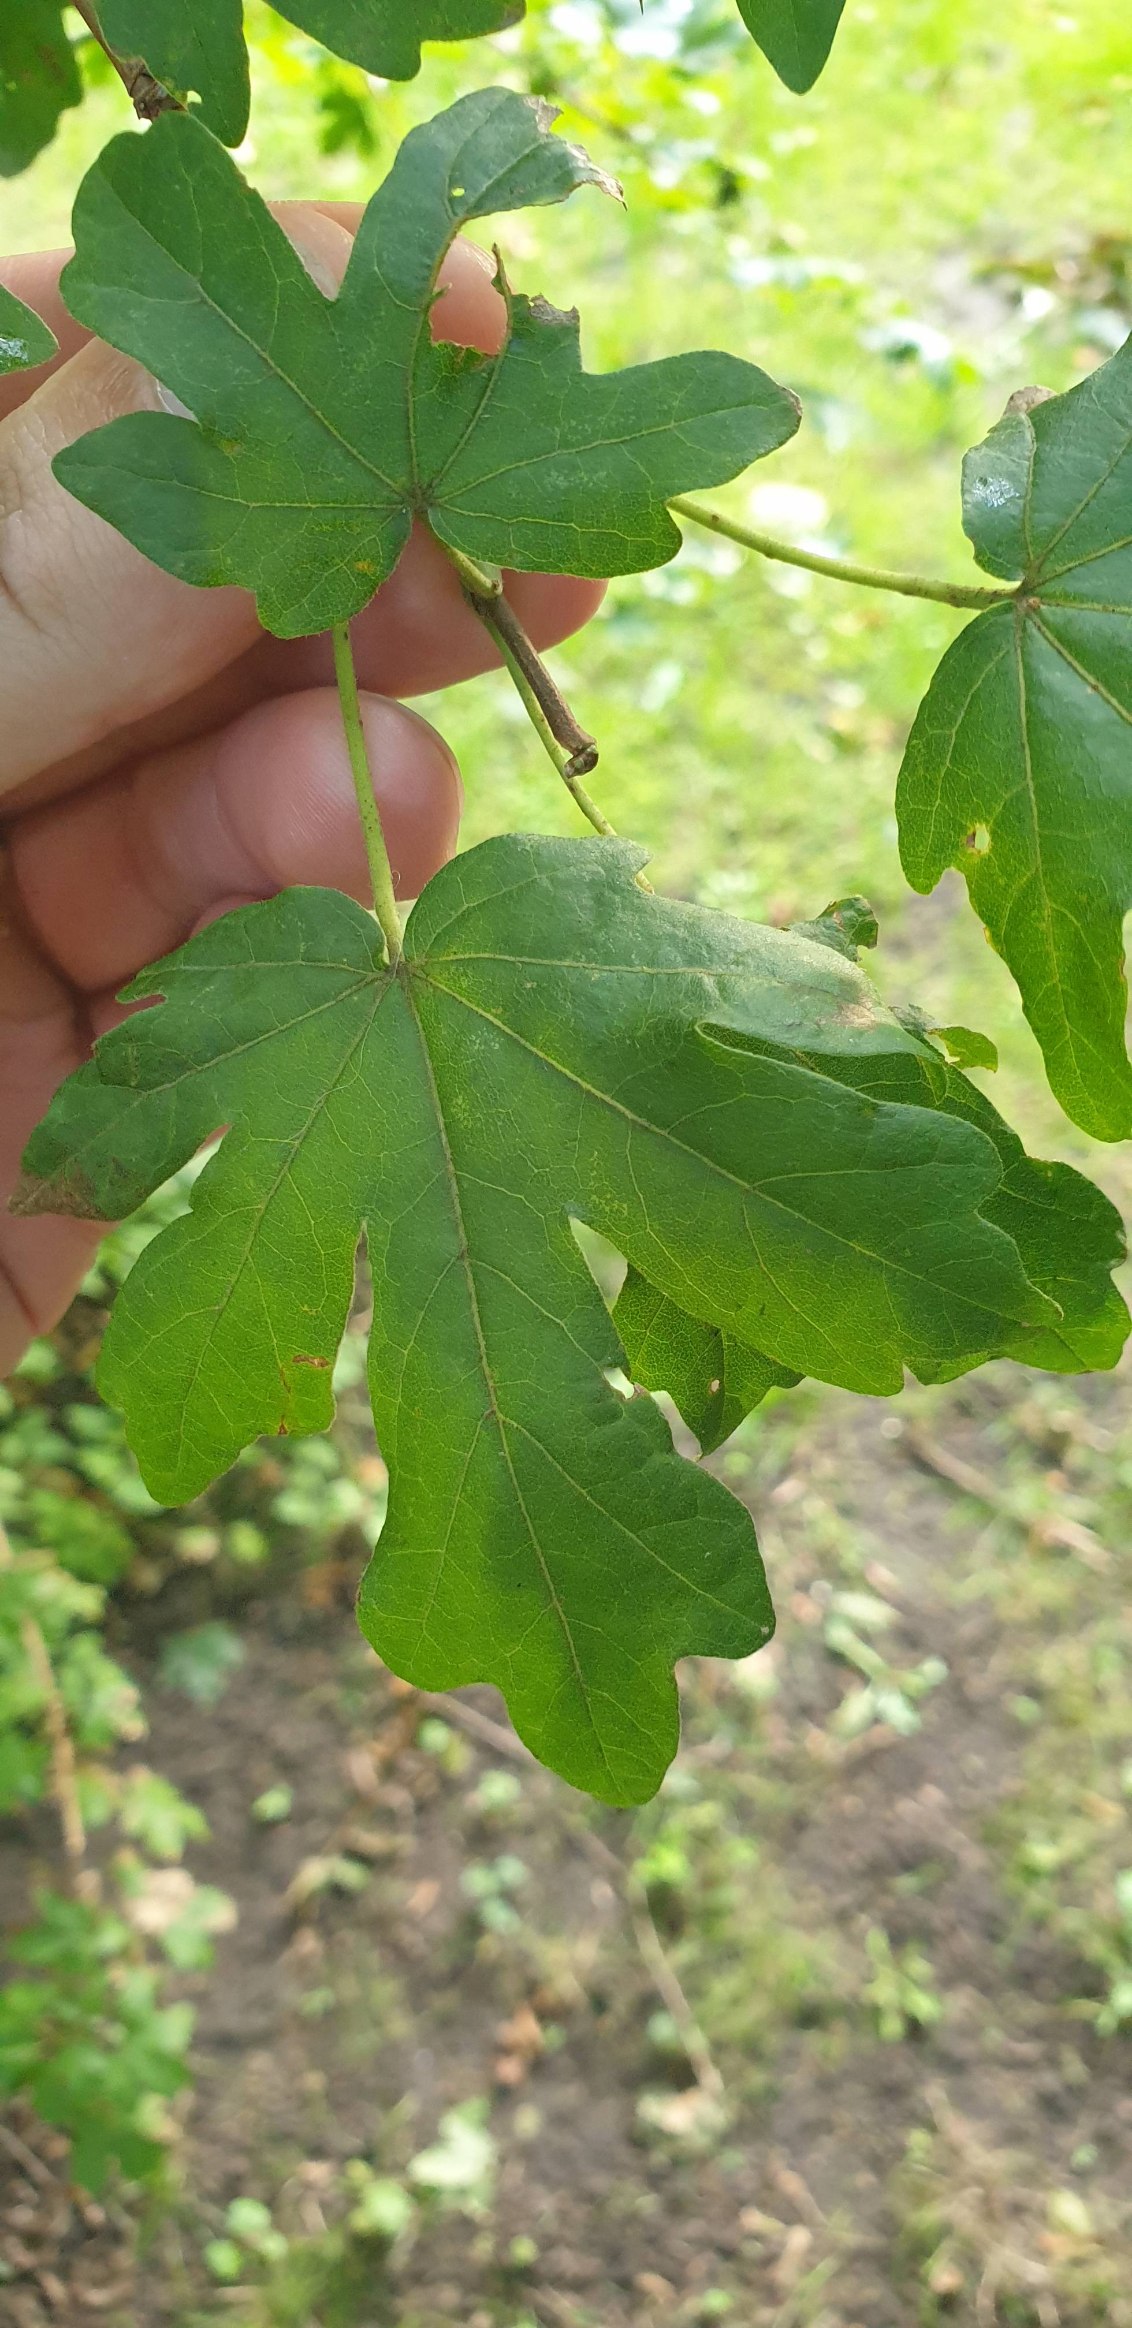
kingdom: Plantae
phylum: Tracheophyta
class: Magnoliopsida
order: Sapindales
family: Sapindaceae
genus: Acer
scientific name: Acer campestre
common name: Navr
